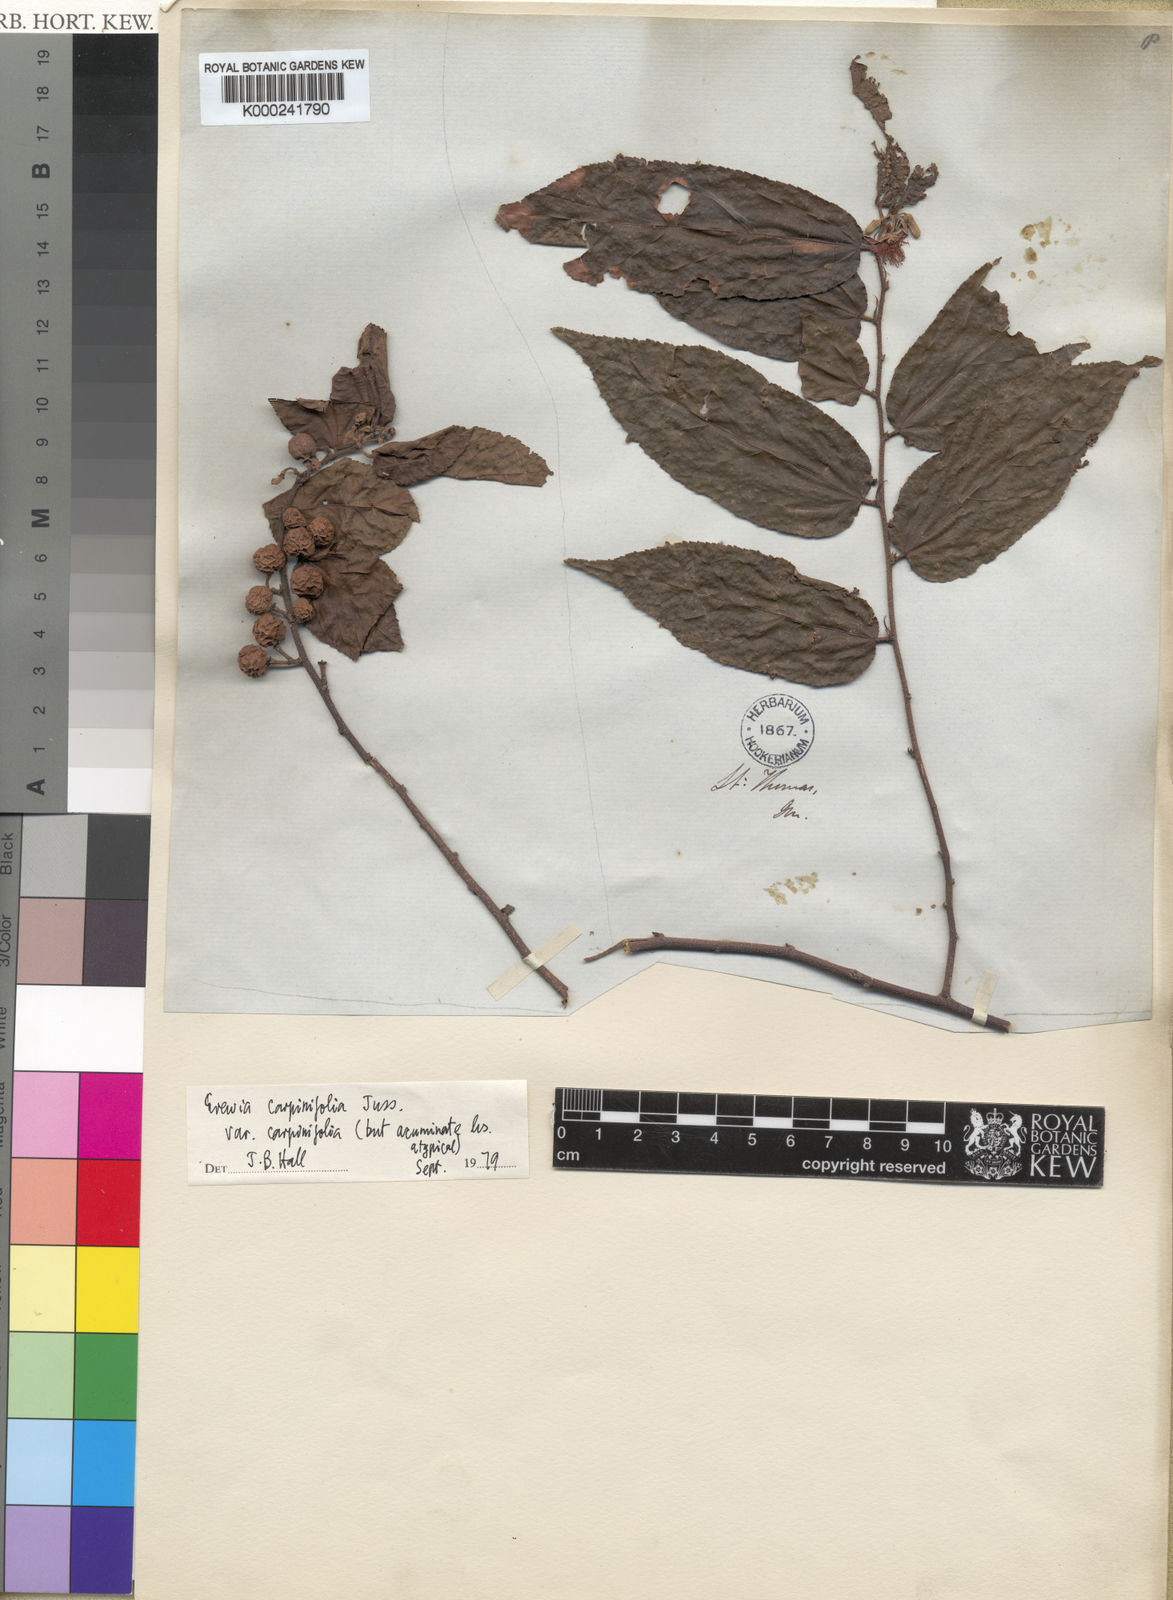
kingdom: Plantae
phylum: Tracheophyta
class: Magnoliopsida
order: Malvales
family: Malvaceae
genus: Grewia
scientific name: Grewia carpinifolia
